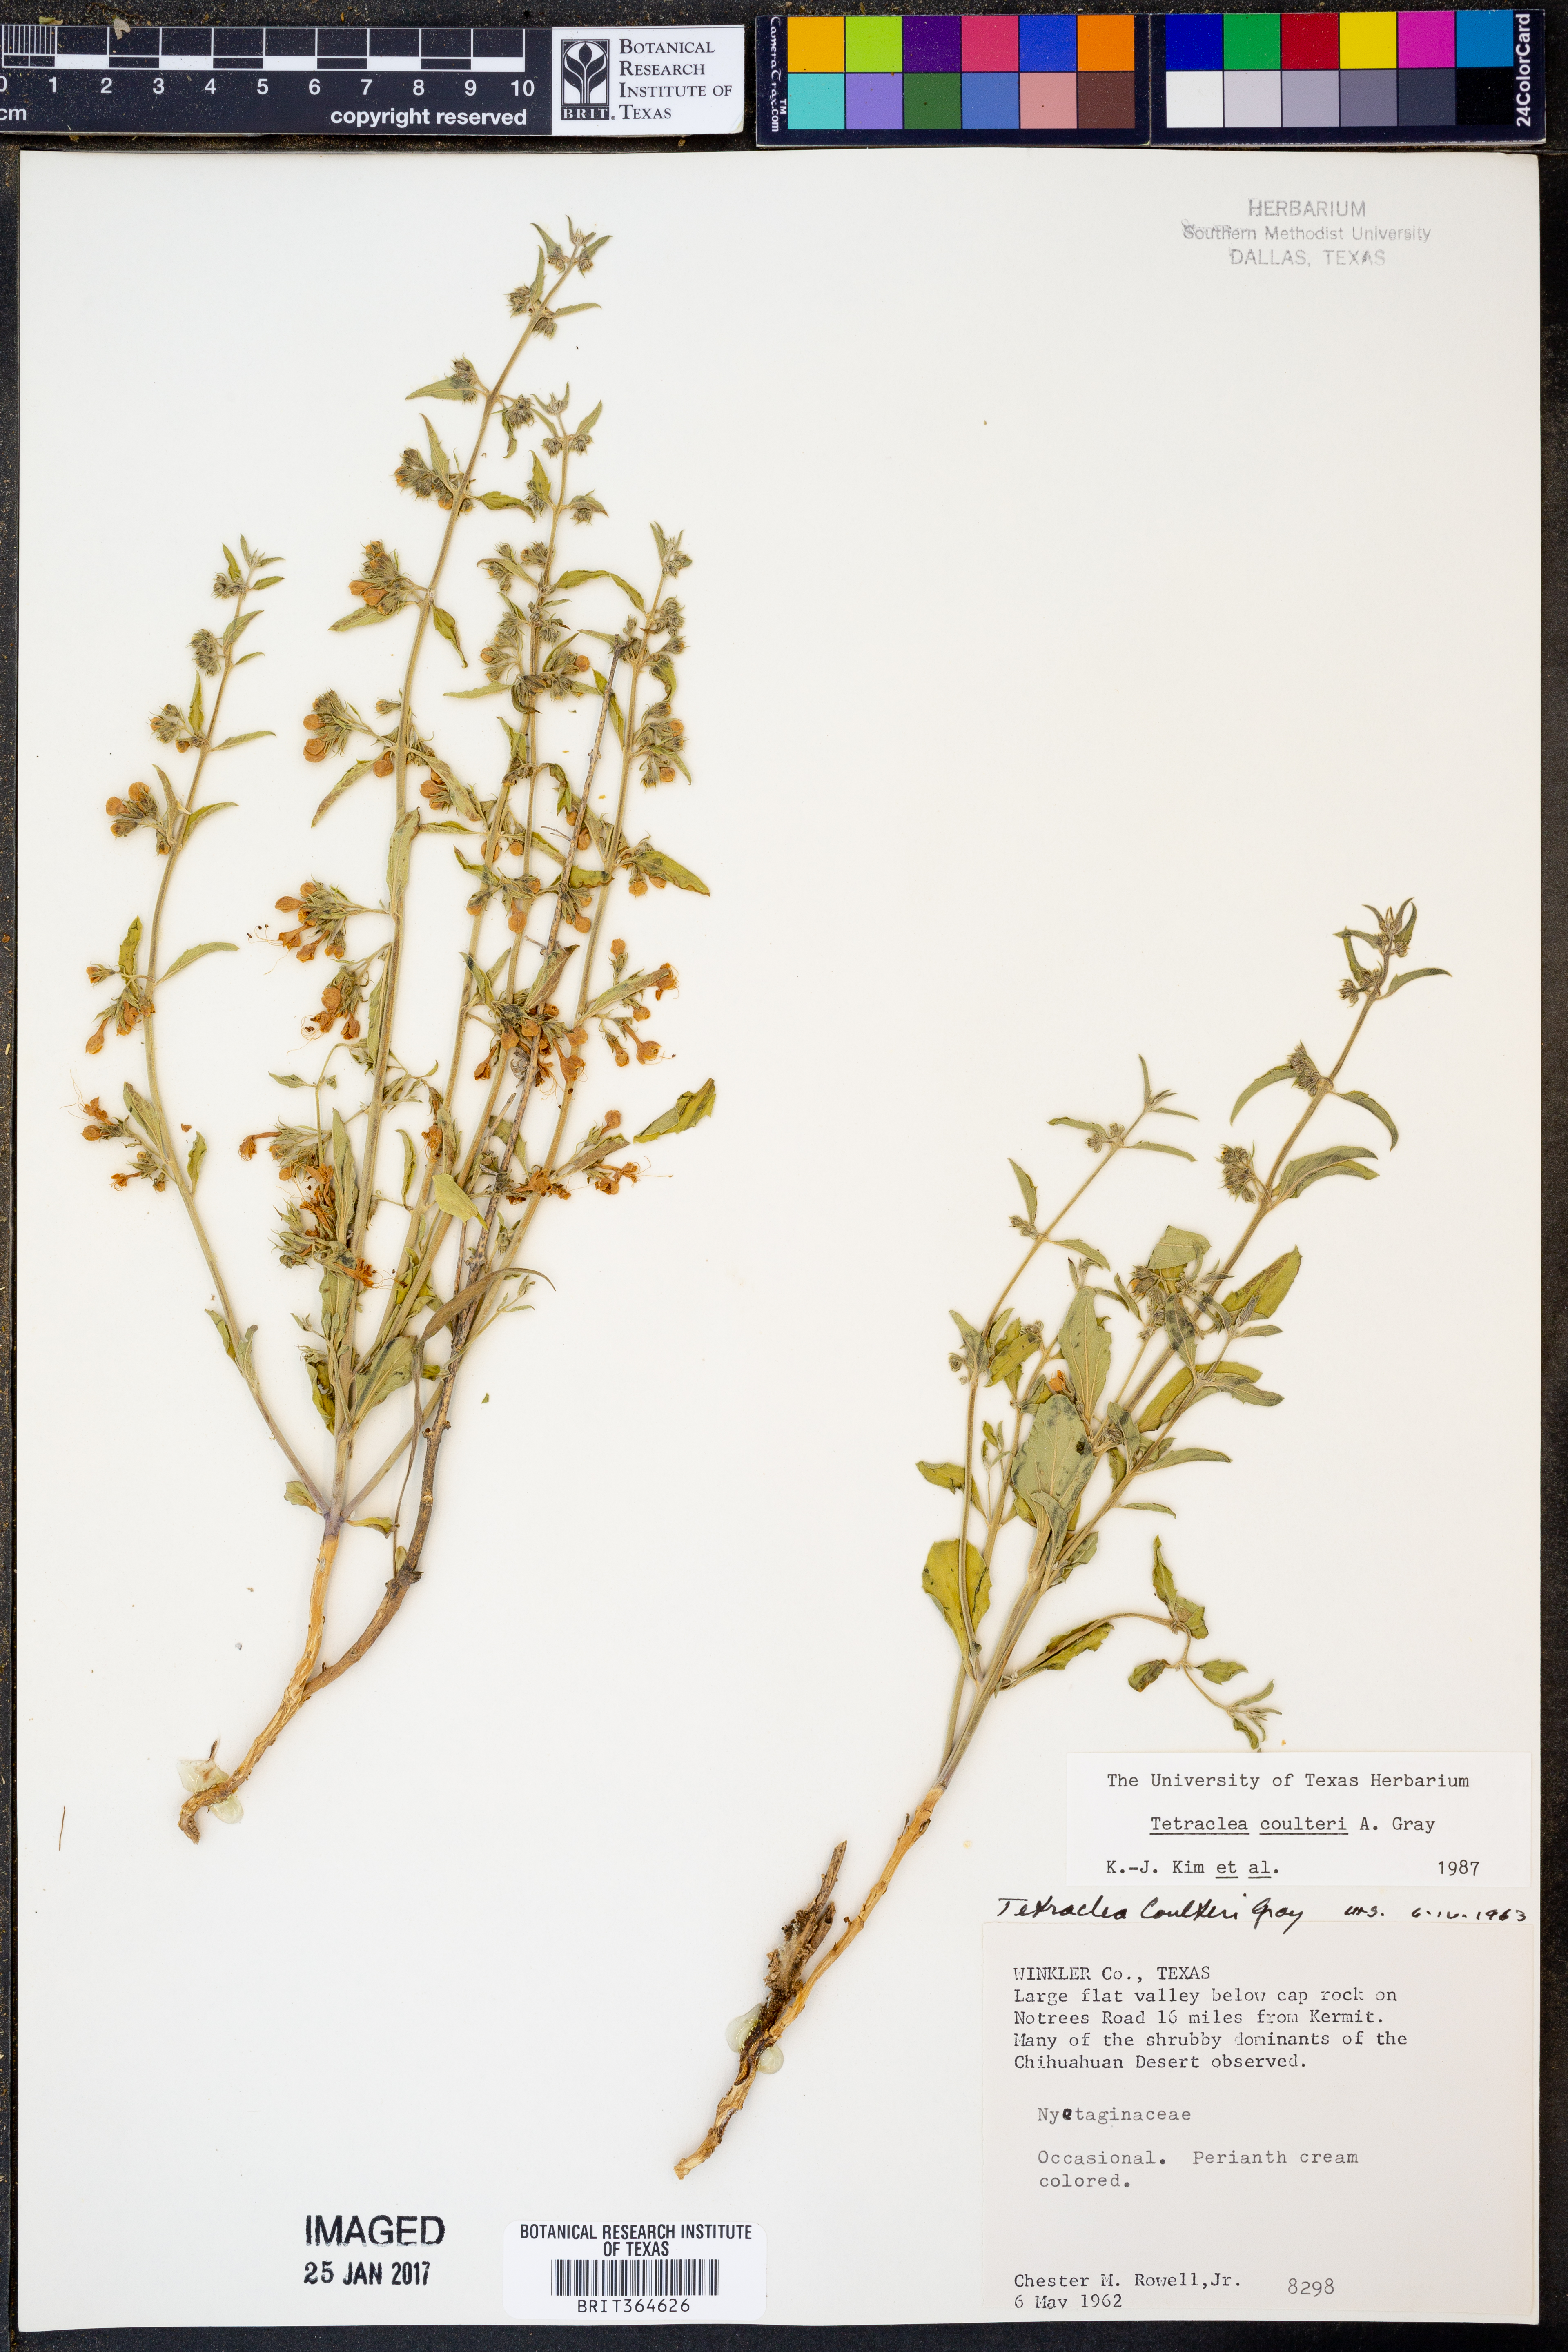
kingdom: Plantae
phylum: Tracheophyta
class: Magnoliopsida
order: Lamiales
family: Lamiaceae
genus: Tetraclea
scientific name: Tetraclea coulteri
